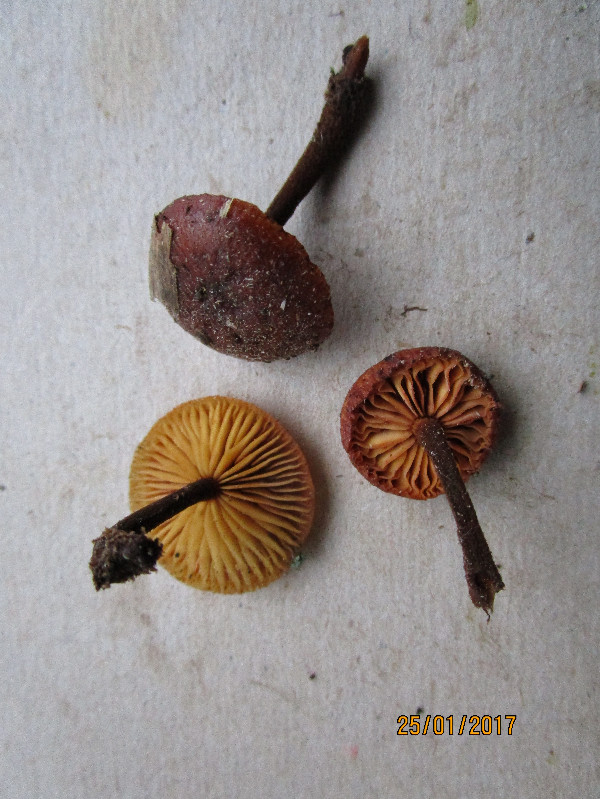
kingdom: Fungi
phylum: Basidiomycota
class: Agaricomycetes
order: Agaricales
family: Macrocystidiaceae
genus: Macrocystidia
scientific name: Macrocystidia cucumis
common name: agurkehat
